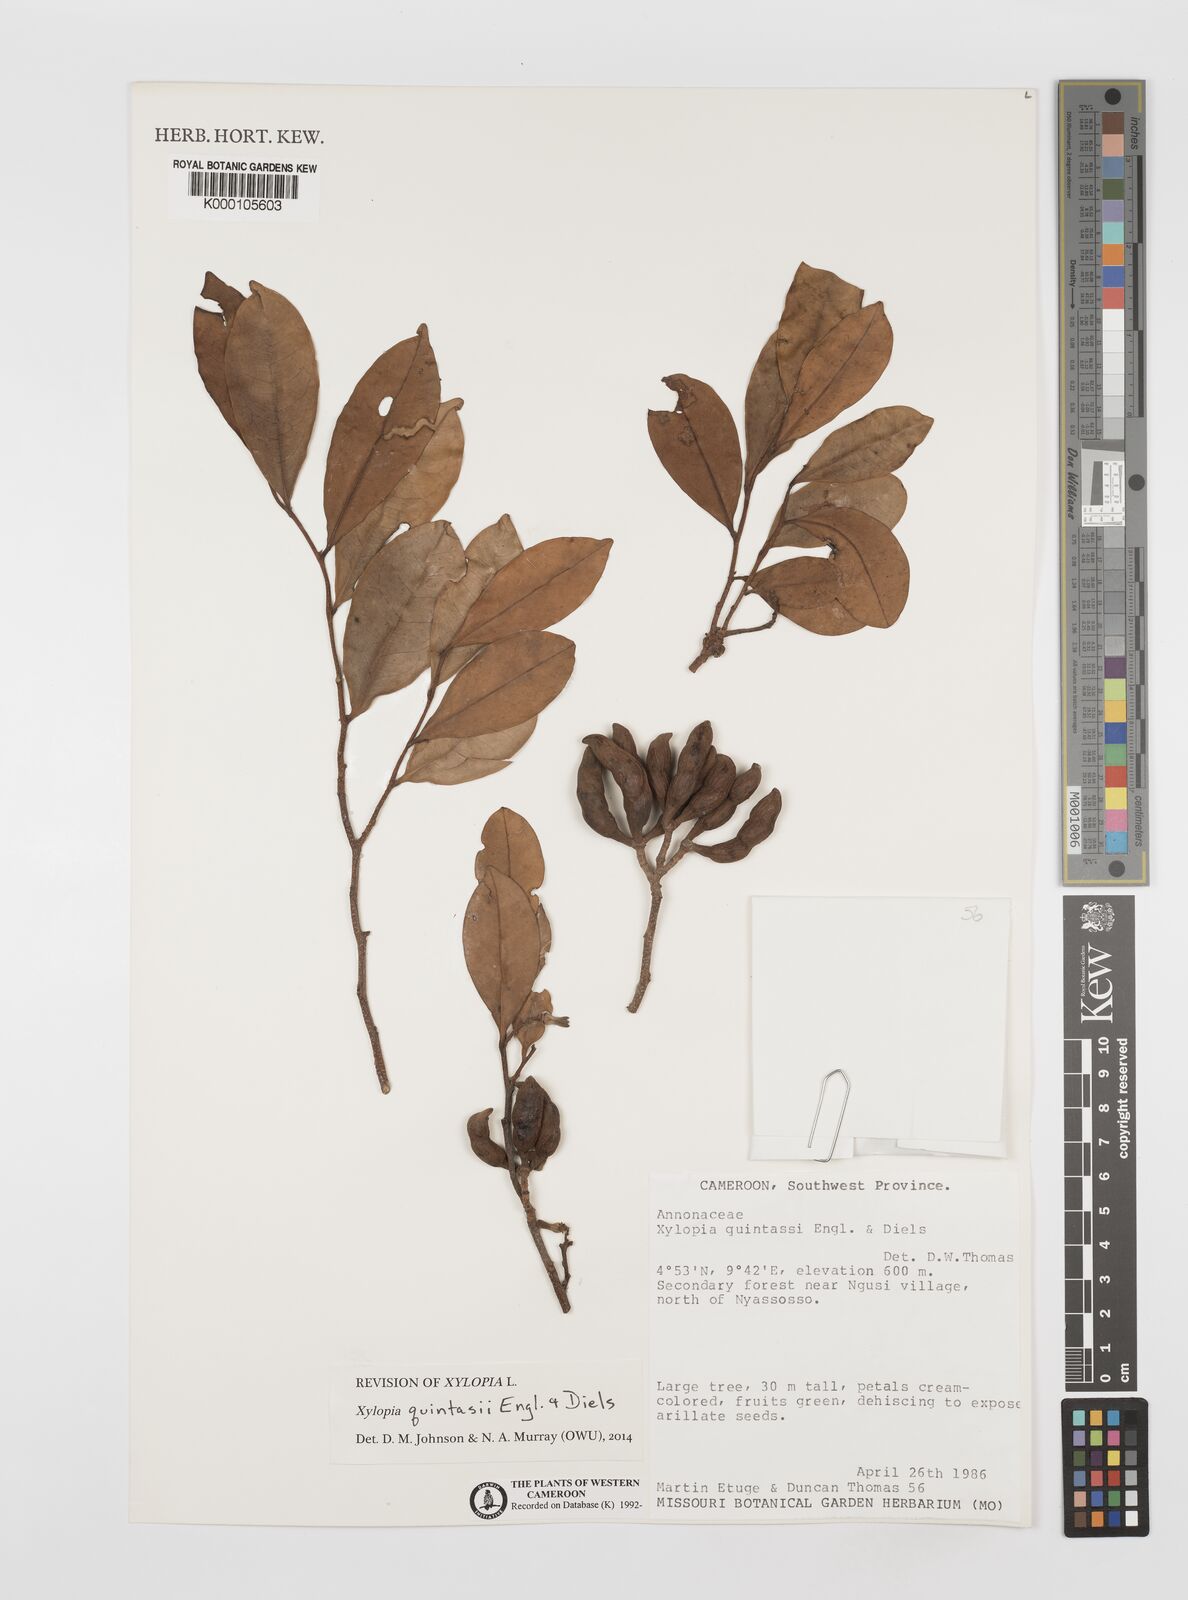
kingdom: Plantae
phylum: Tracheophyta
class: Magnoliopsida
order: Magnoliales
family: Annonaceae
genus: Xylopia
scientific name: Xylopia quintasii
